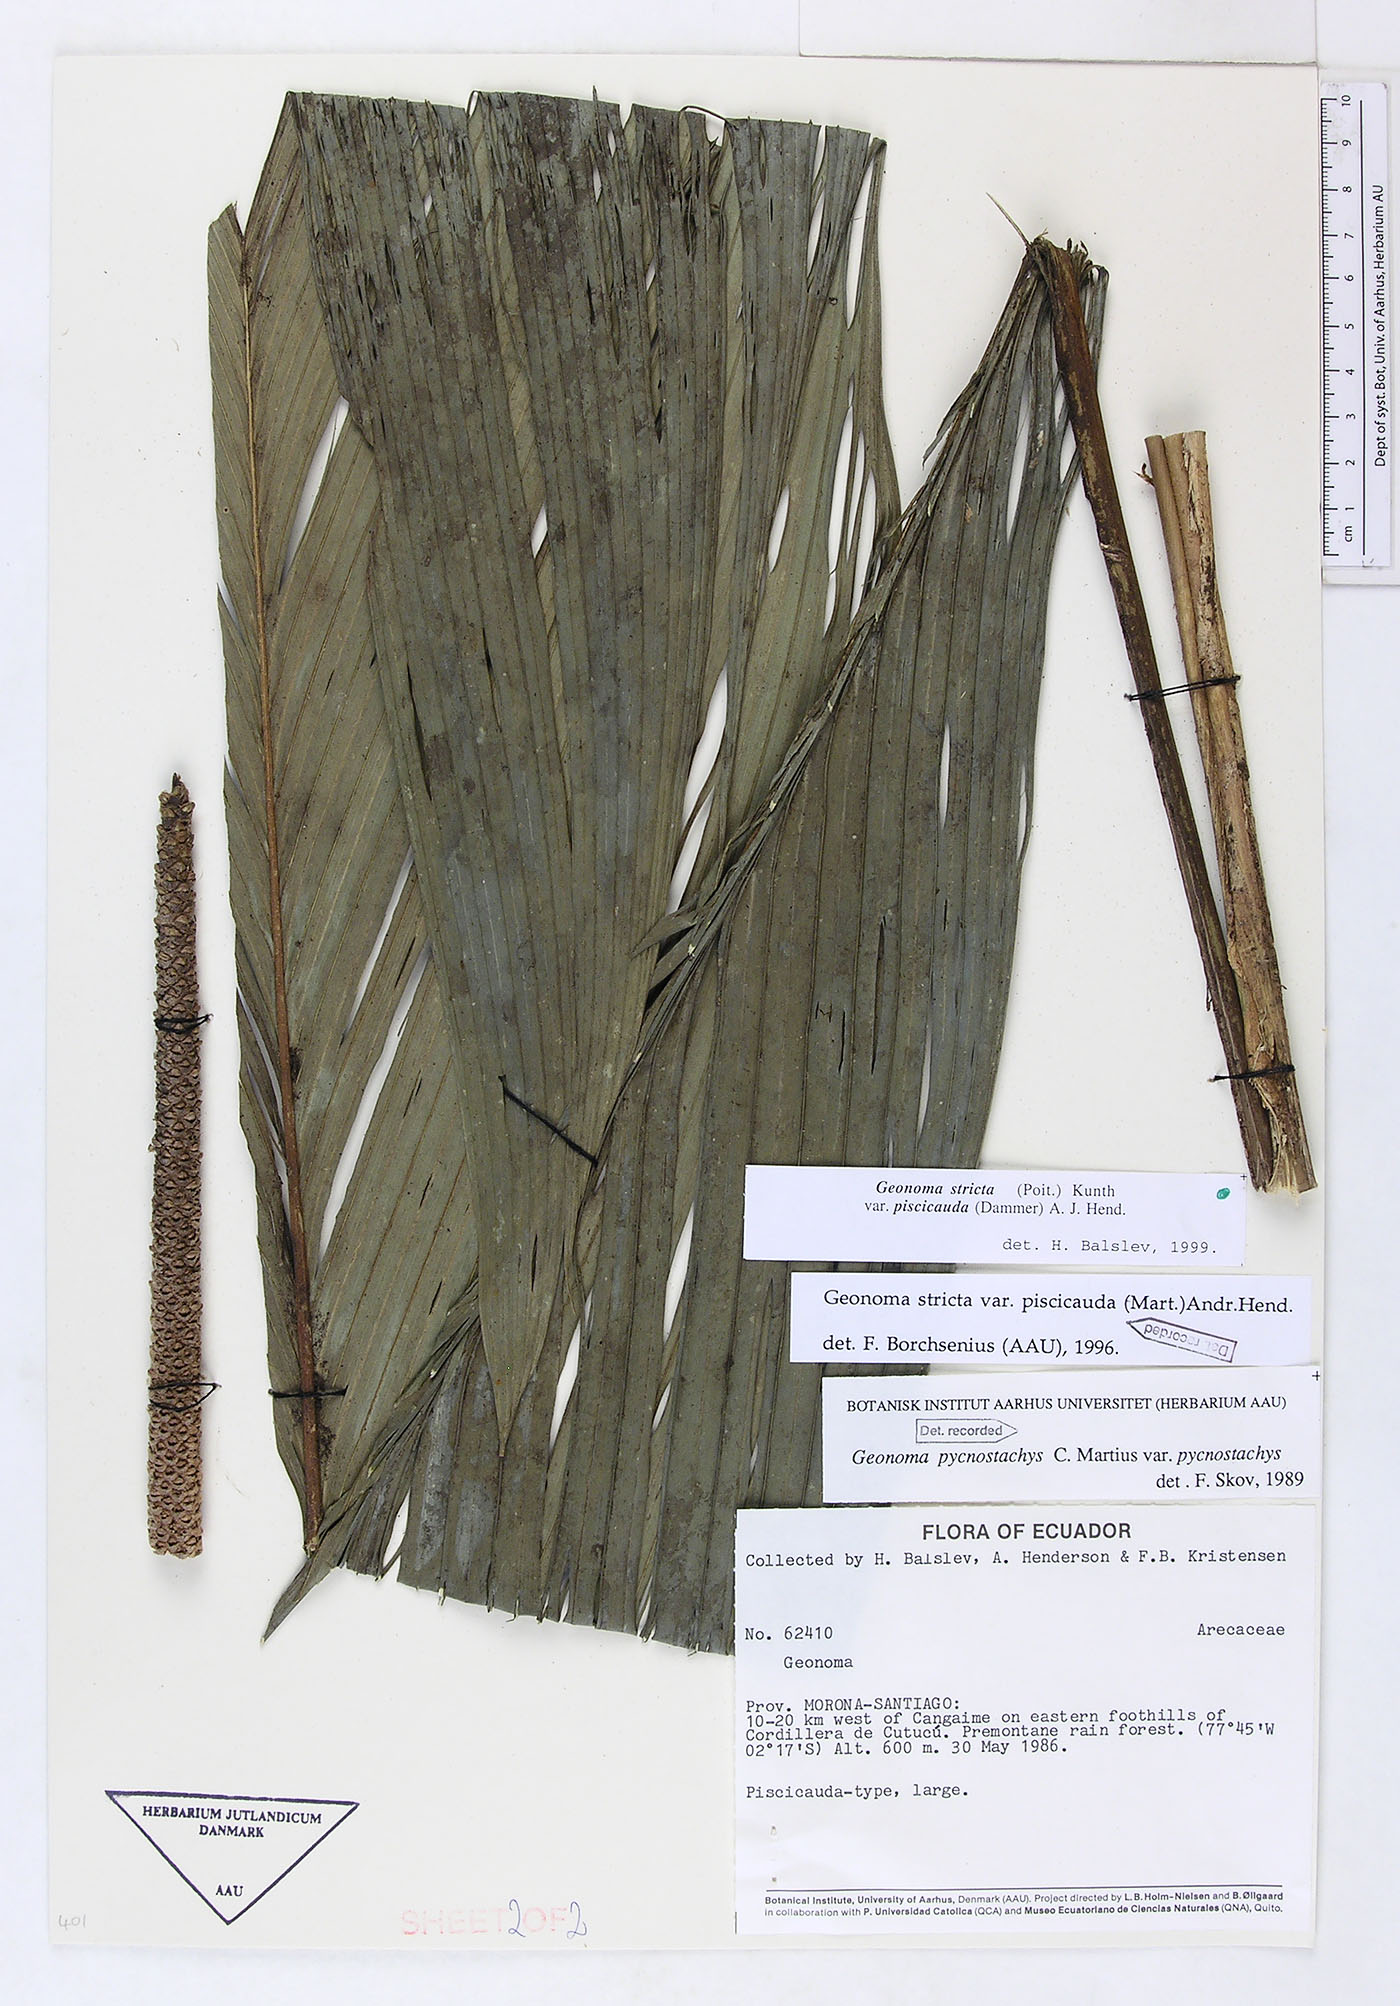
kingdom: Plantae
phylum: Tracheophyta
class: Liliopsida
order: Arecales
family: Arecaceae
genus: Geonoma
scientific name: Geonoma stricta
